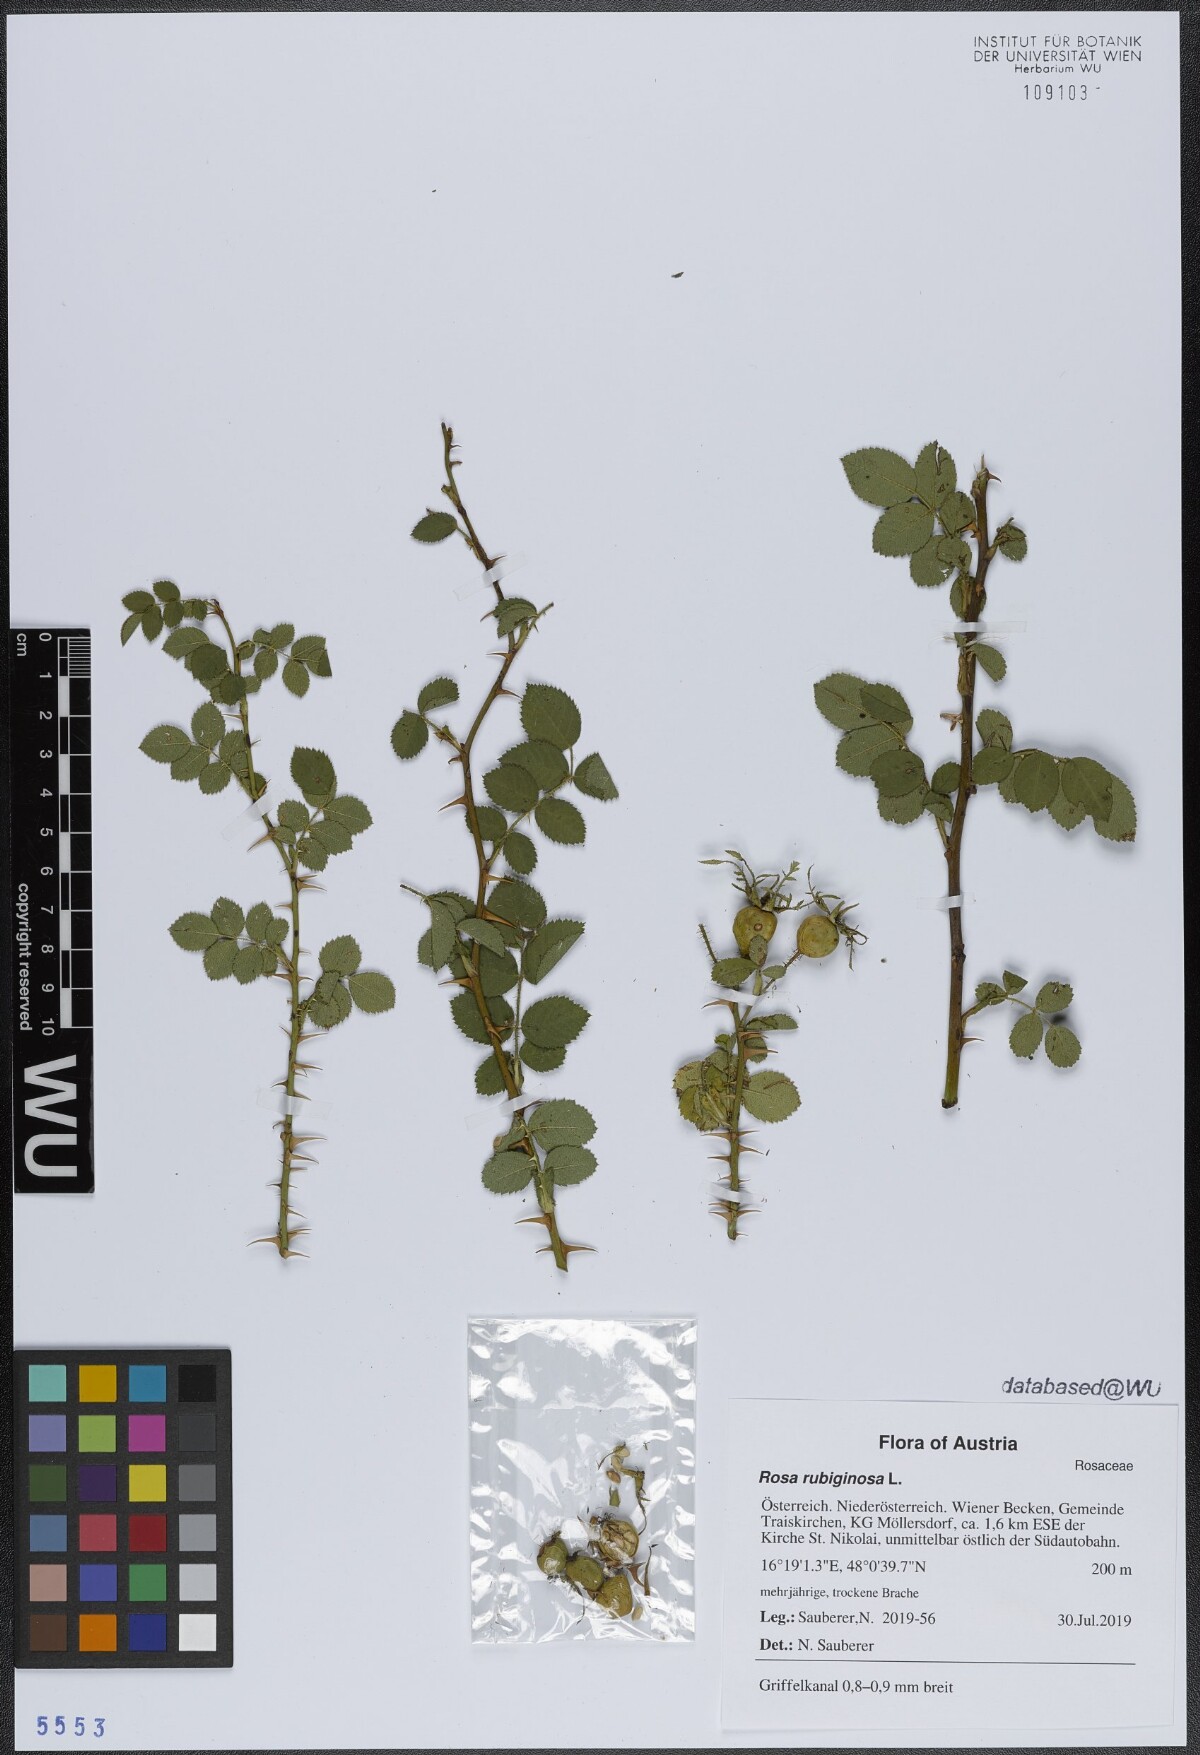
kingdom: Plantae
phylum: Tracheophyta
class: Magnoliopsida
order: Rosales
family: Rosaceae
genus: Rosa
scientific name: Rosa rubiginosa
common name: Sweet-briar
